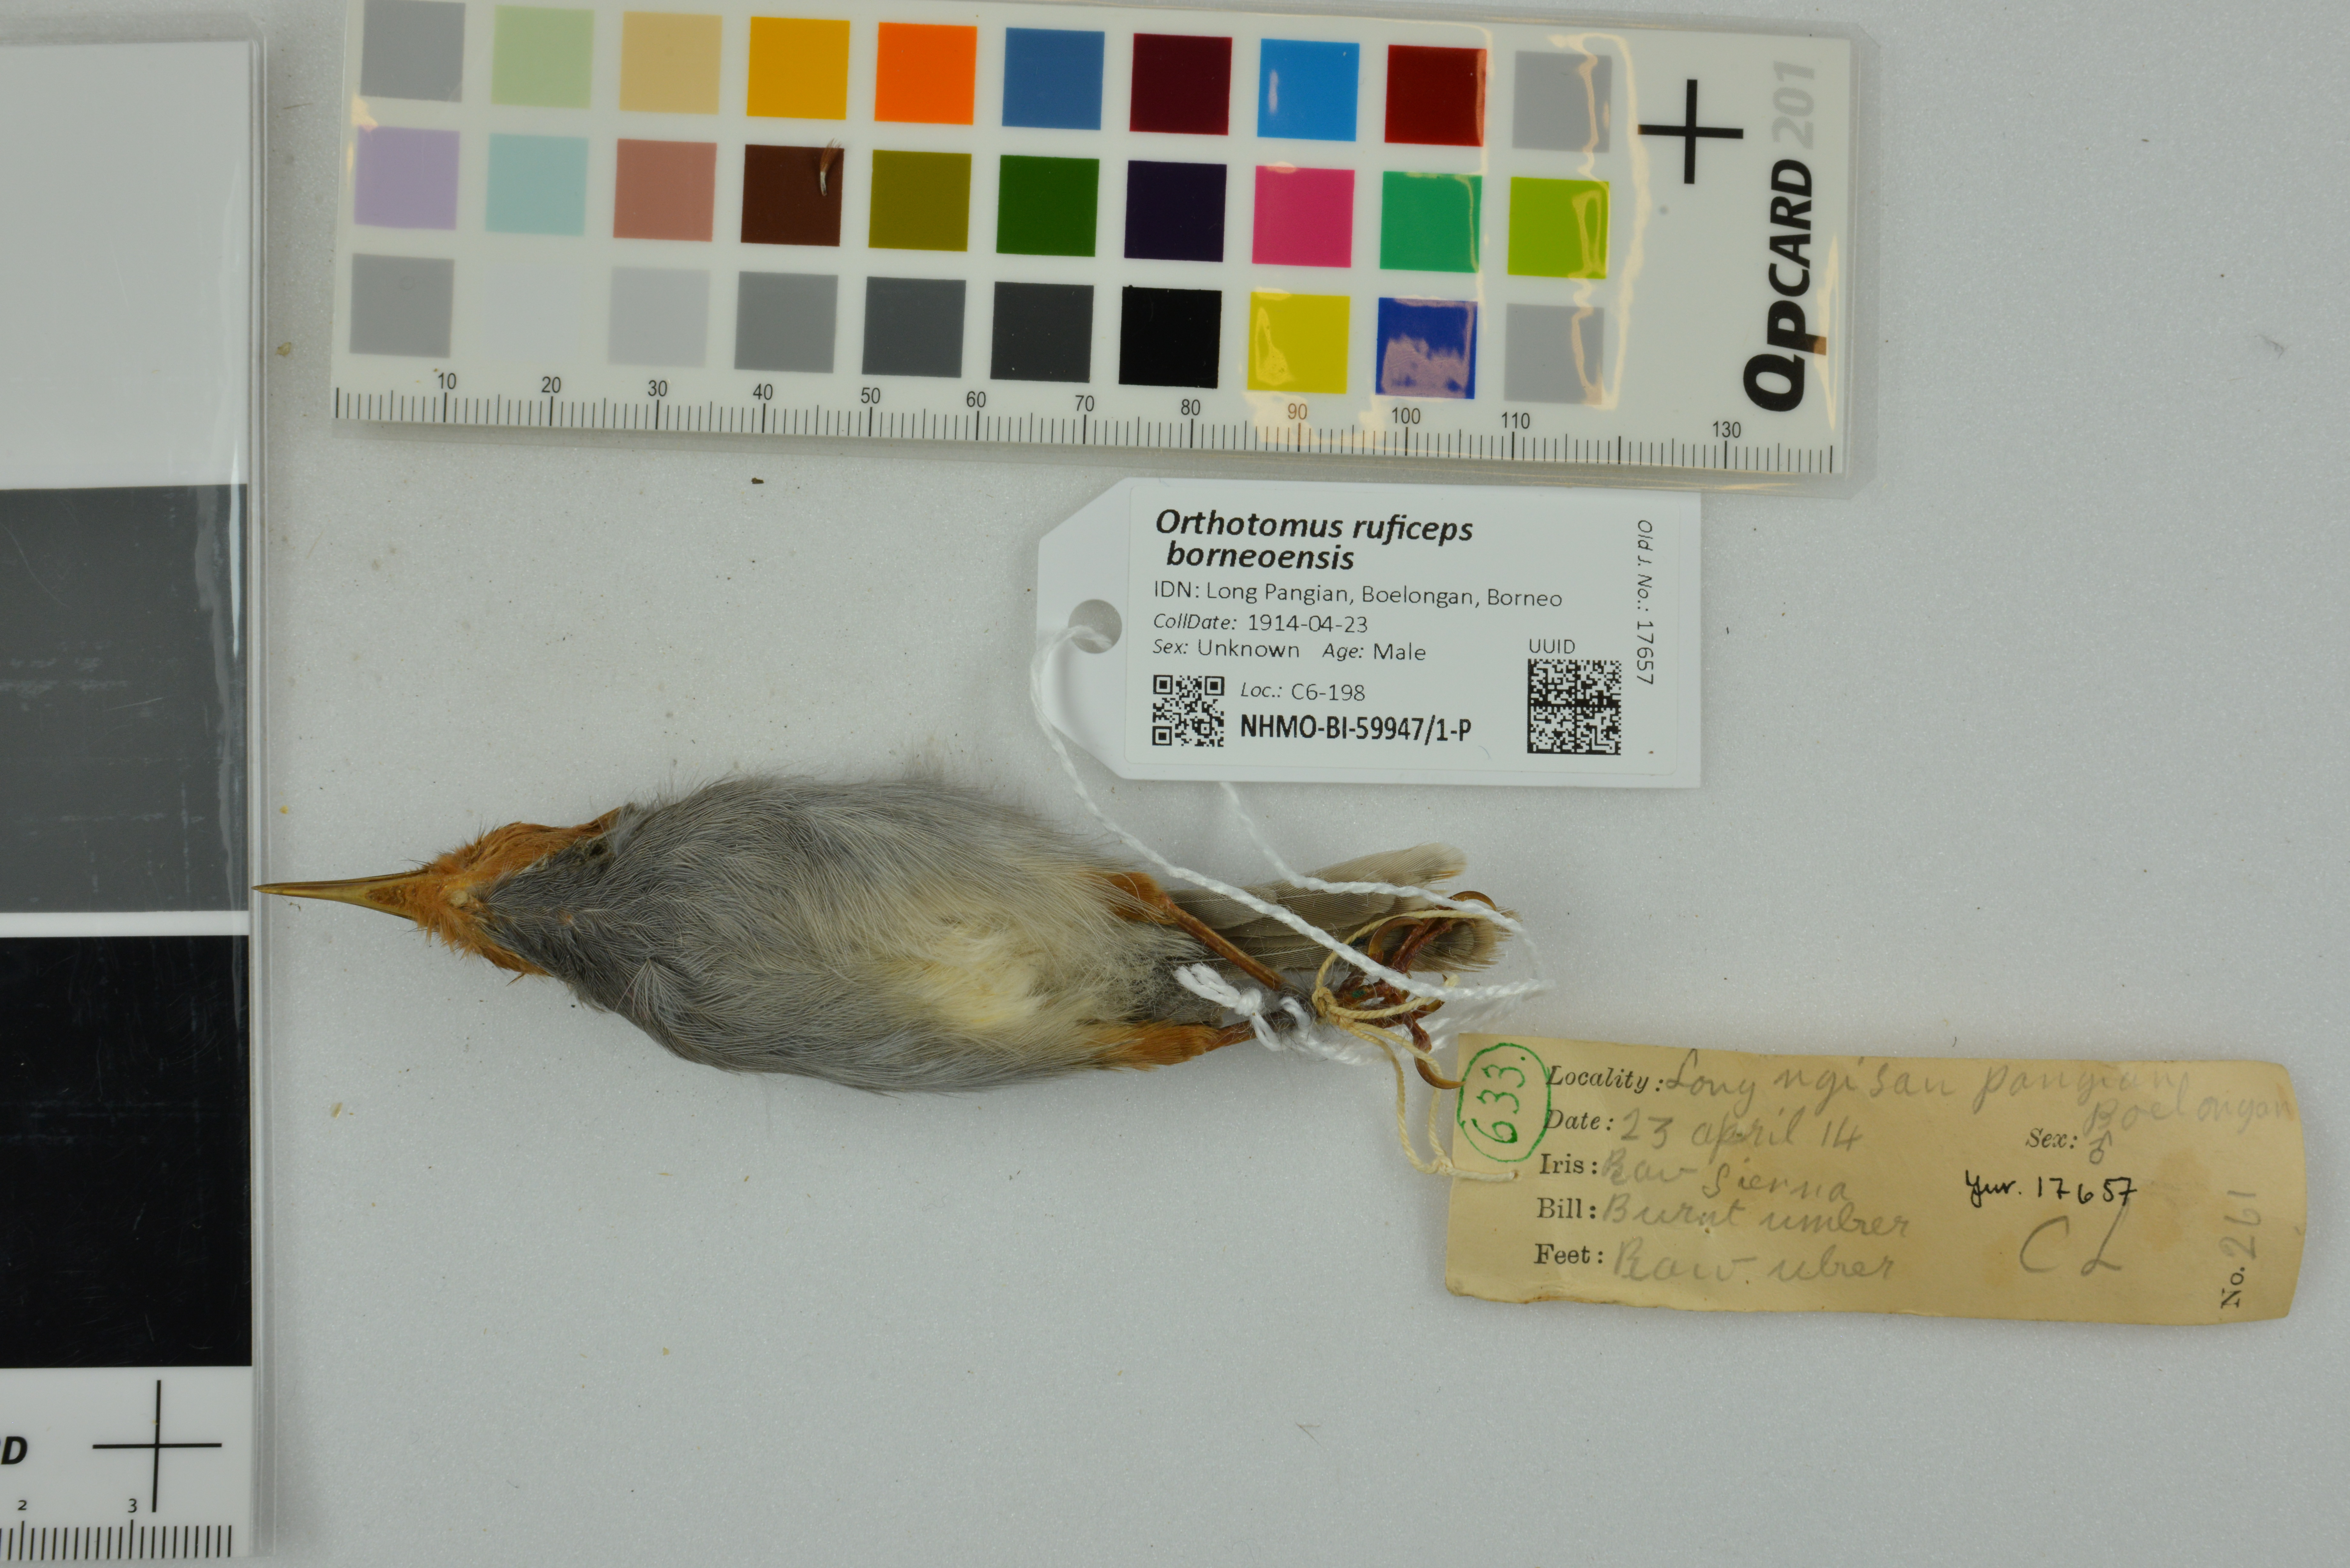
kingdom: Animalia
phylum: Chordata
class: Aves
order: Passeriformes
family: Cisticolidae
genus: Orthotomus
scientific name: Orthotomus ruficeps
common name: Ashy tailorbird
